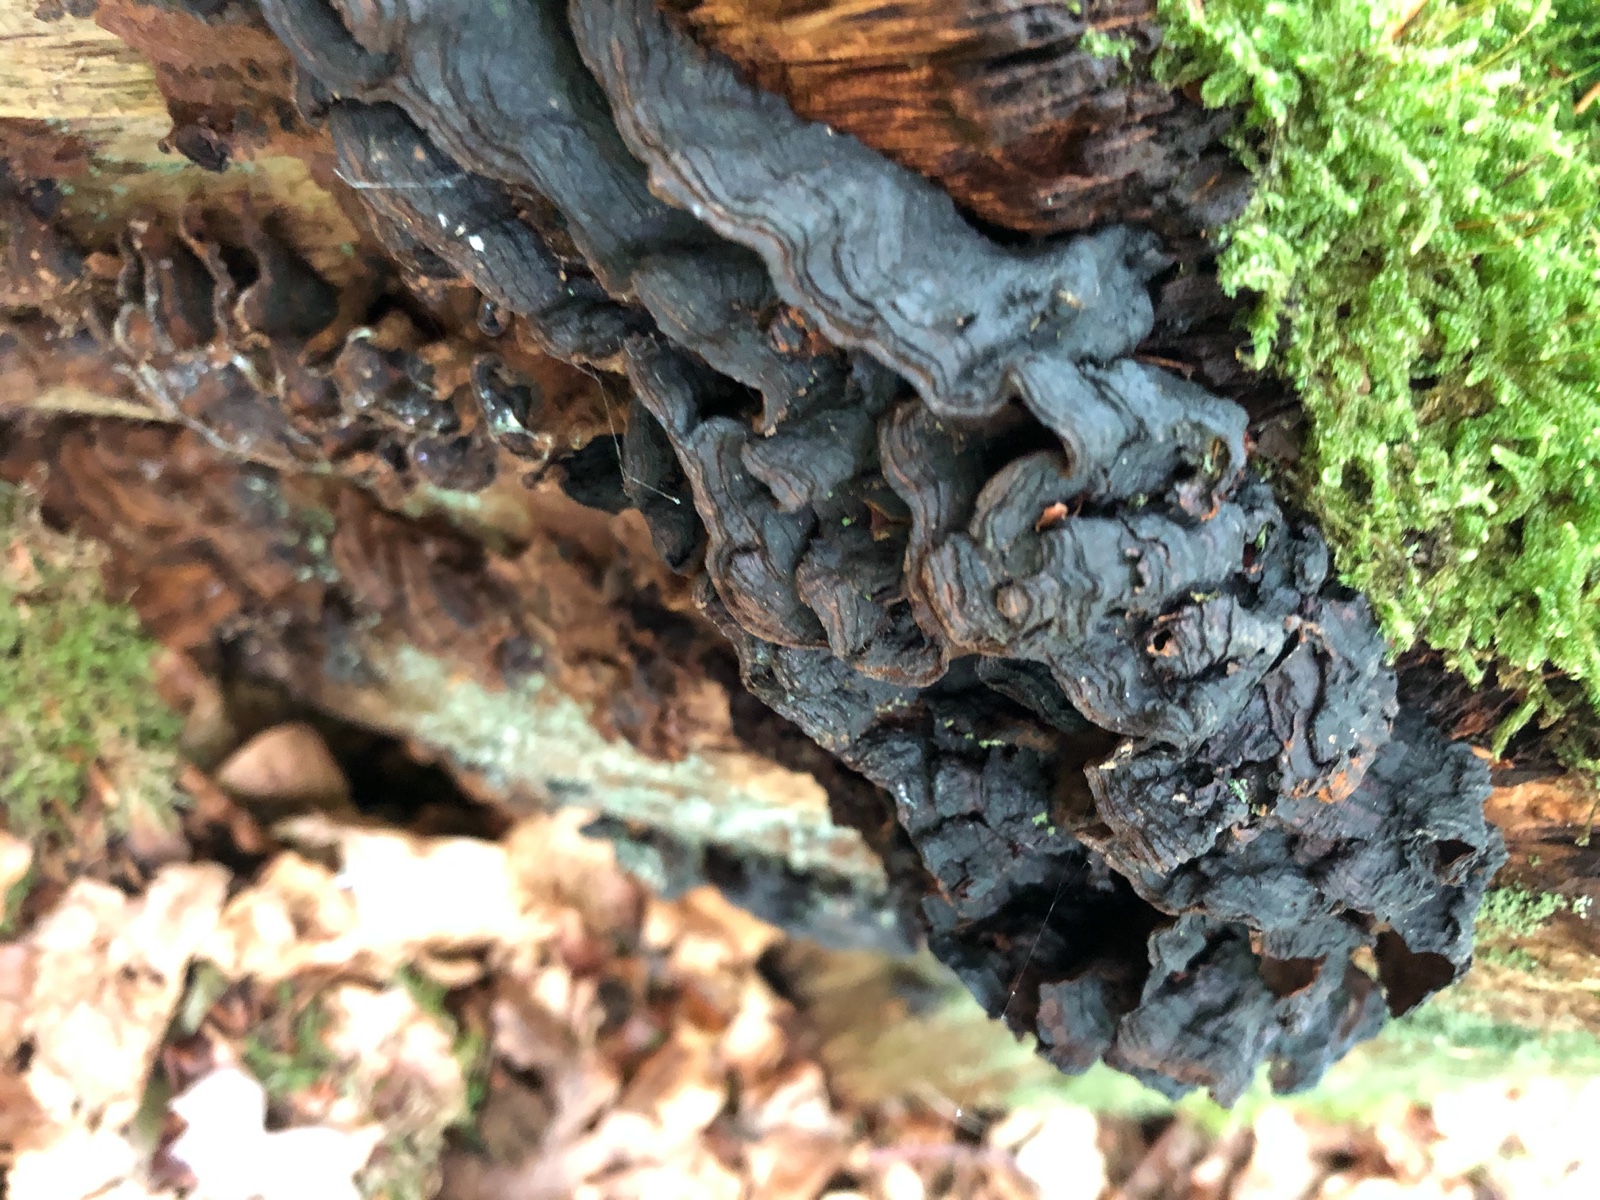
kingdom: Fungi
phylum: Basidiomycota
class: Agaricomycetes
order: Hymenochaetales
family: Hymenochaetaceae
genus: Hymenochaete
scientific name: Hymenochaete rubiginosa
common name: stiv ruslædersvamp
